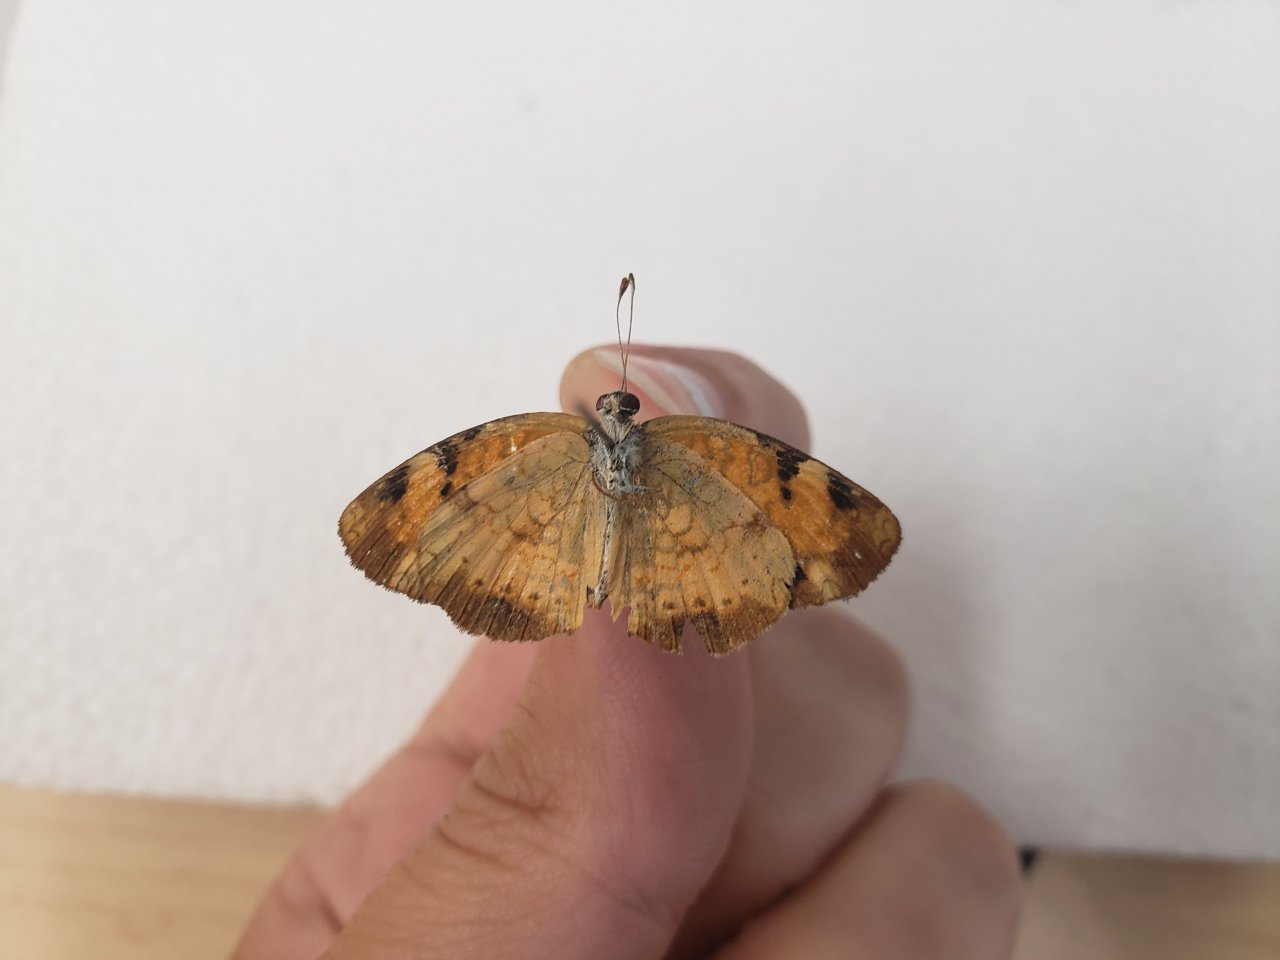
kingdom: Animalia
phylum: Arthropoda
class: Insecta
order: Lepidoptera
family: Nymphalidae
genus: Phyciodes
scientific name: Phyciodes tharos
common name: Northern Crescent
